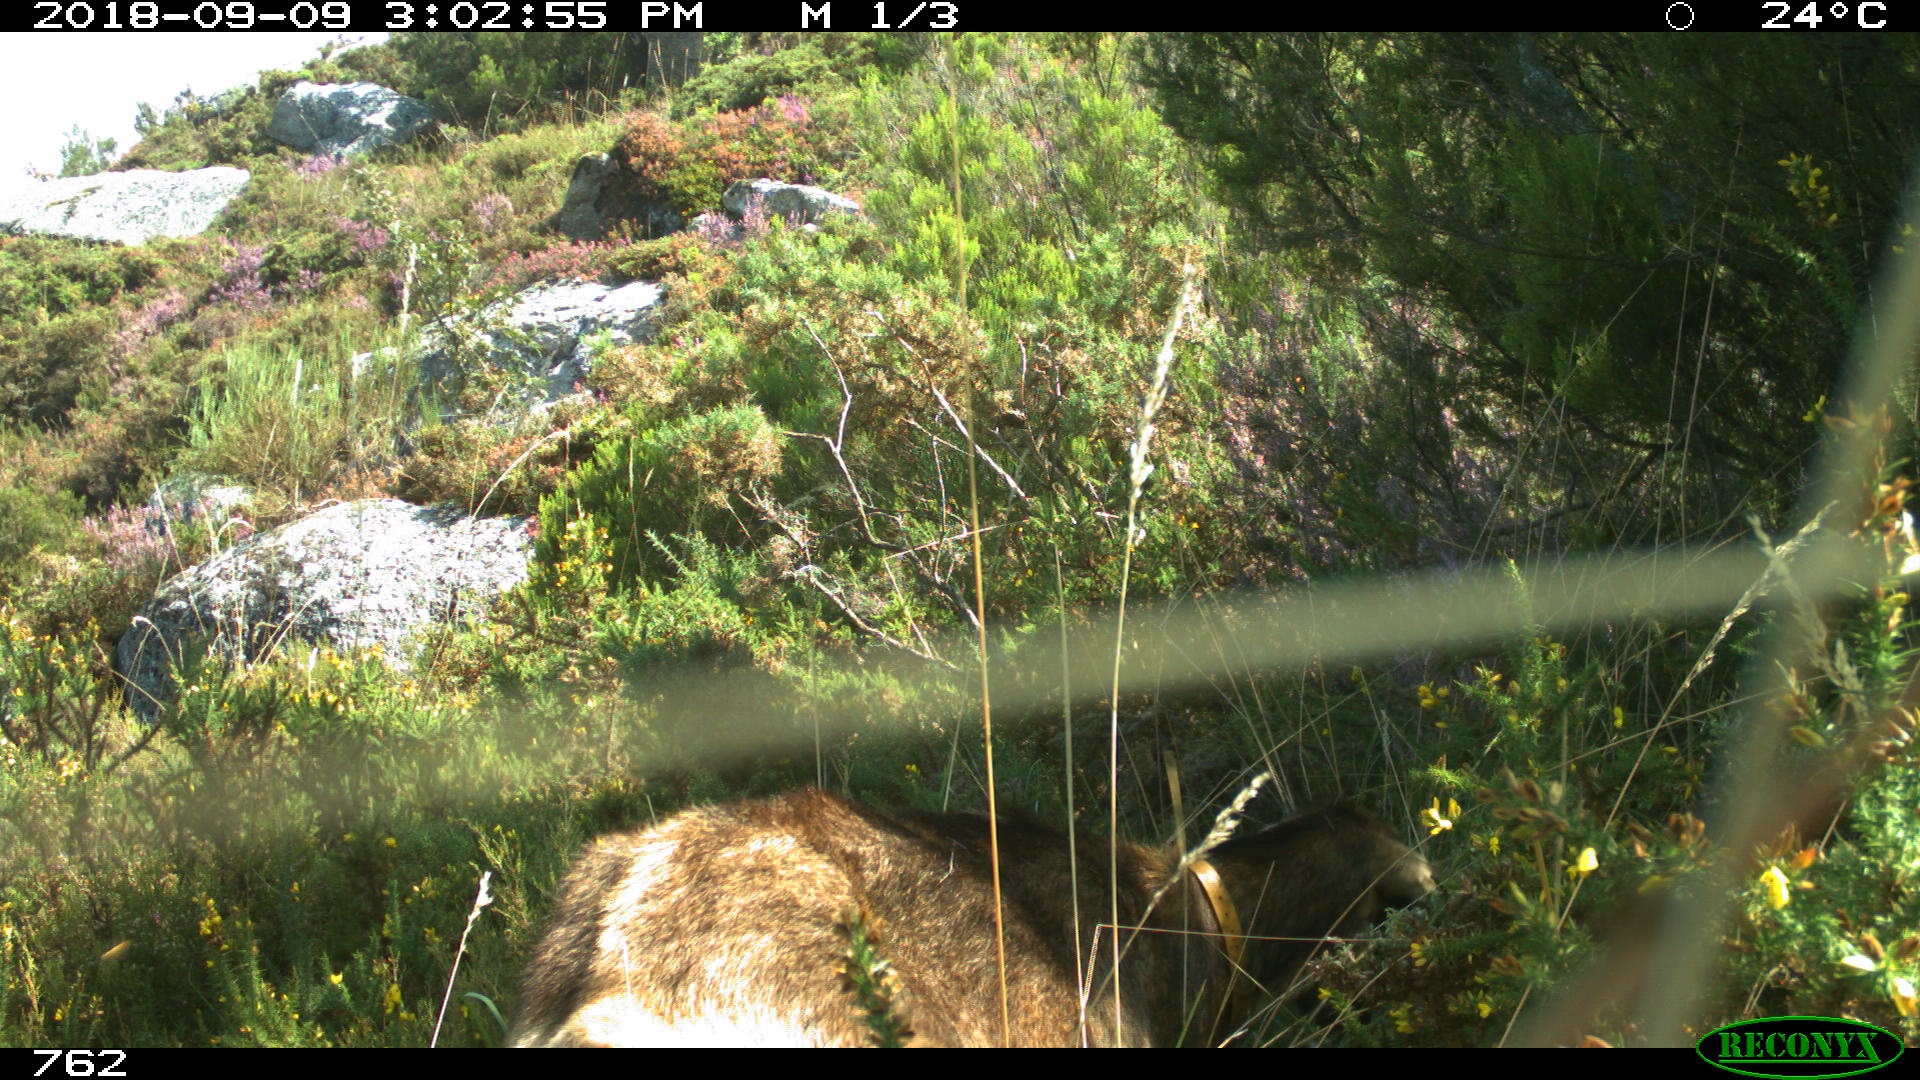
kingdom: Animalia
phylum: Chordata
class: Mammalia
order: Artiodactyla
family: Bovidae
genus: Capra
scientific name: Capra hircus
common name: Domestic goat
